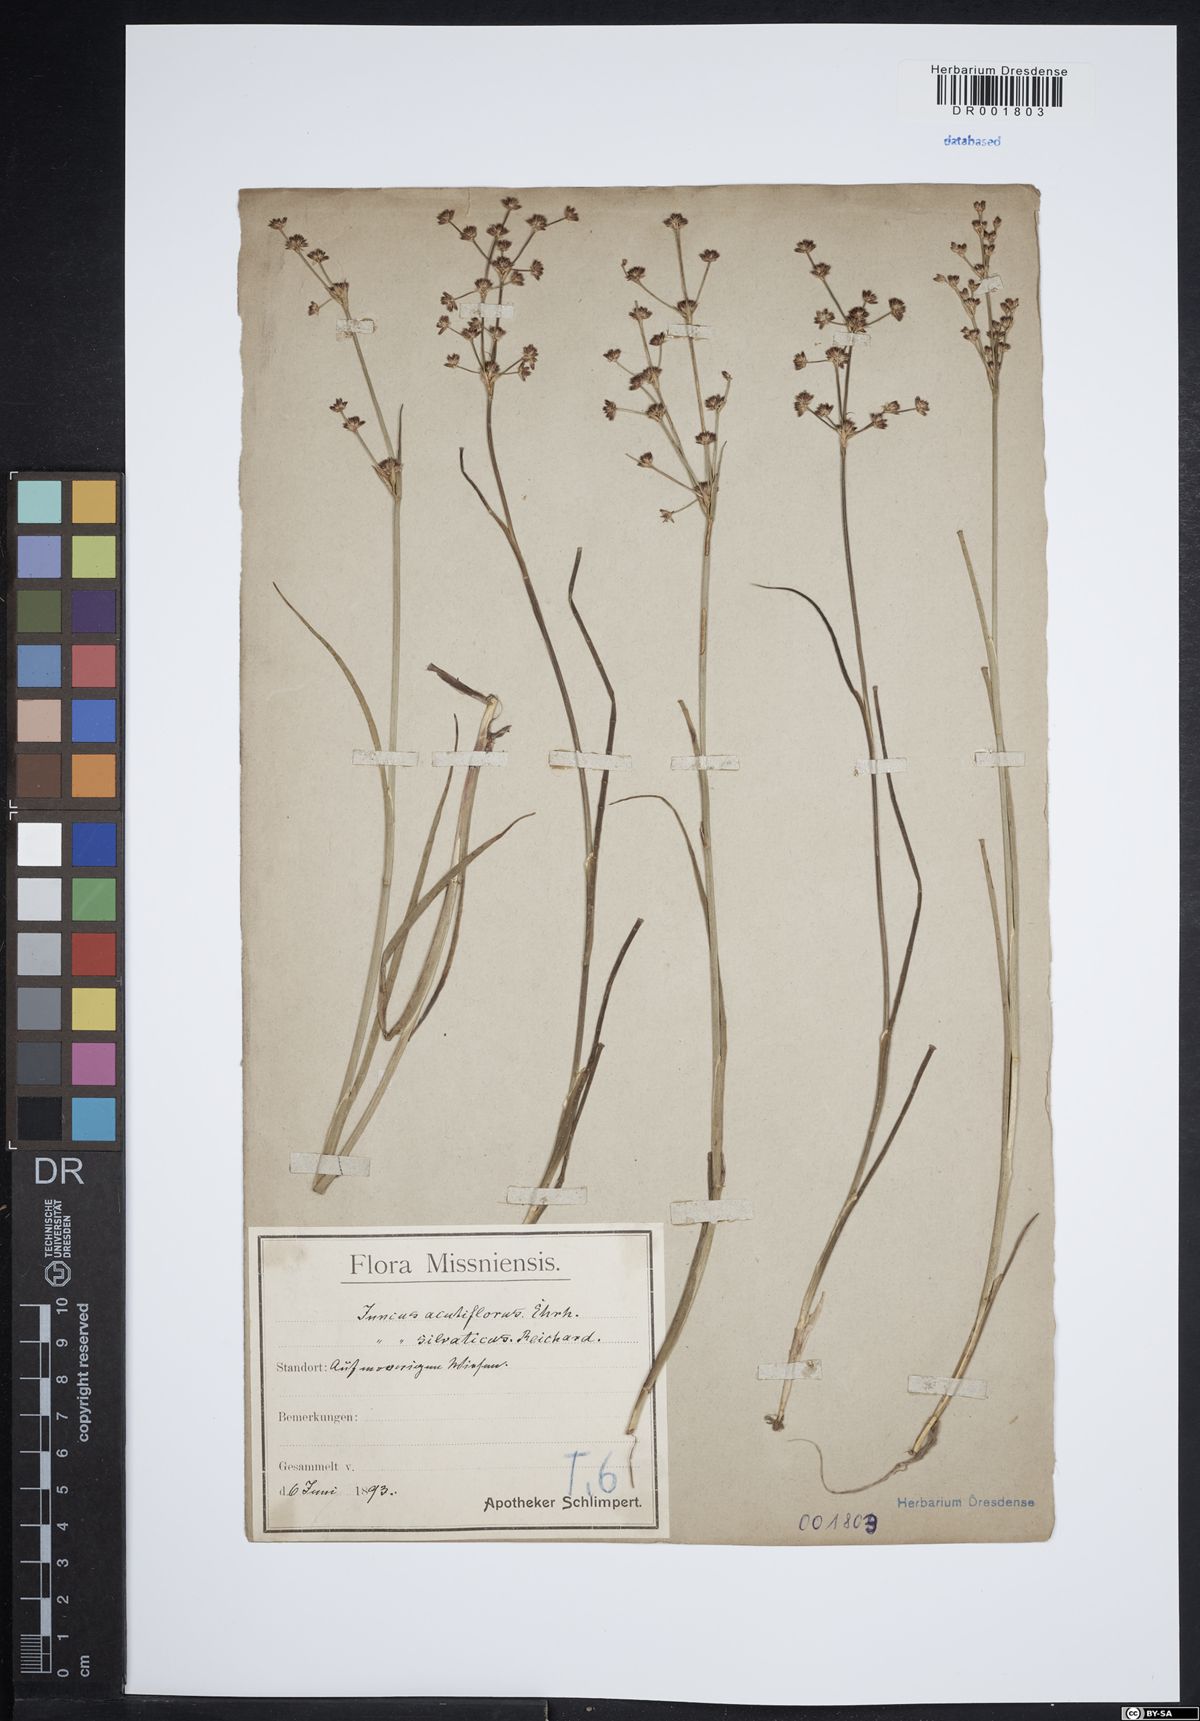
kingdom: Plantae
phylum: Tracheophyta
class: Liliopsida
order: Poales
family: Juncaceae
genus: Juncus
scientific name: Juncus acutiflorus
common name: Sharp-flowered rush
